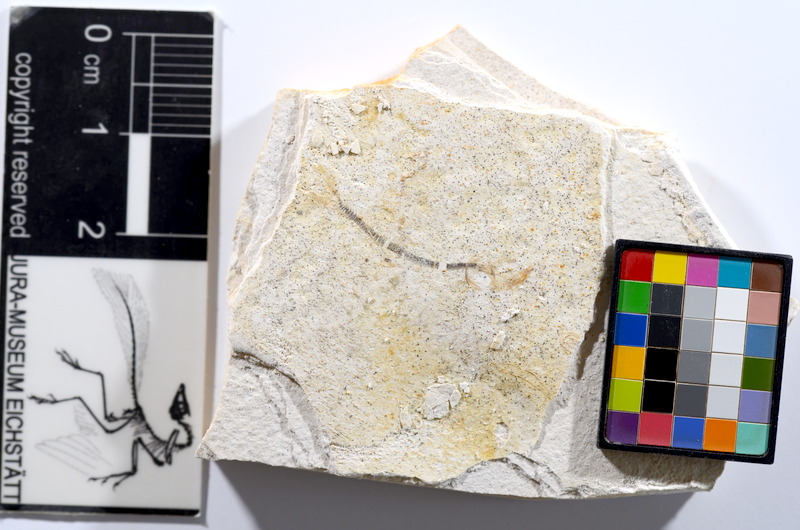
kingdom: Animalia
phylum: Chordata
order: Salmoniformes
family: Orthogonikleithridae
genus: Orthogonikleithrus
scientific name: Orthogonikleithrus hoelli
